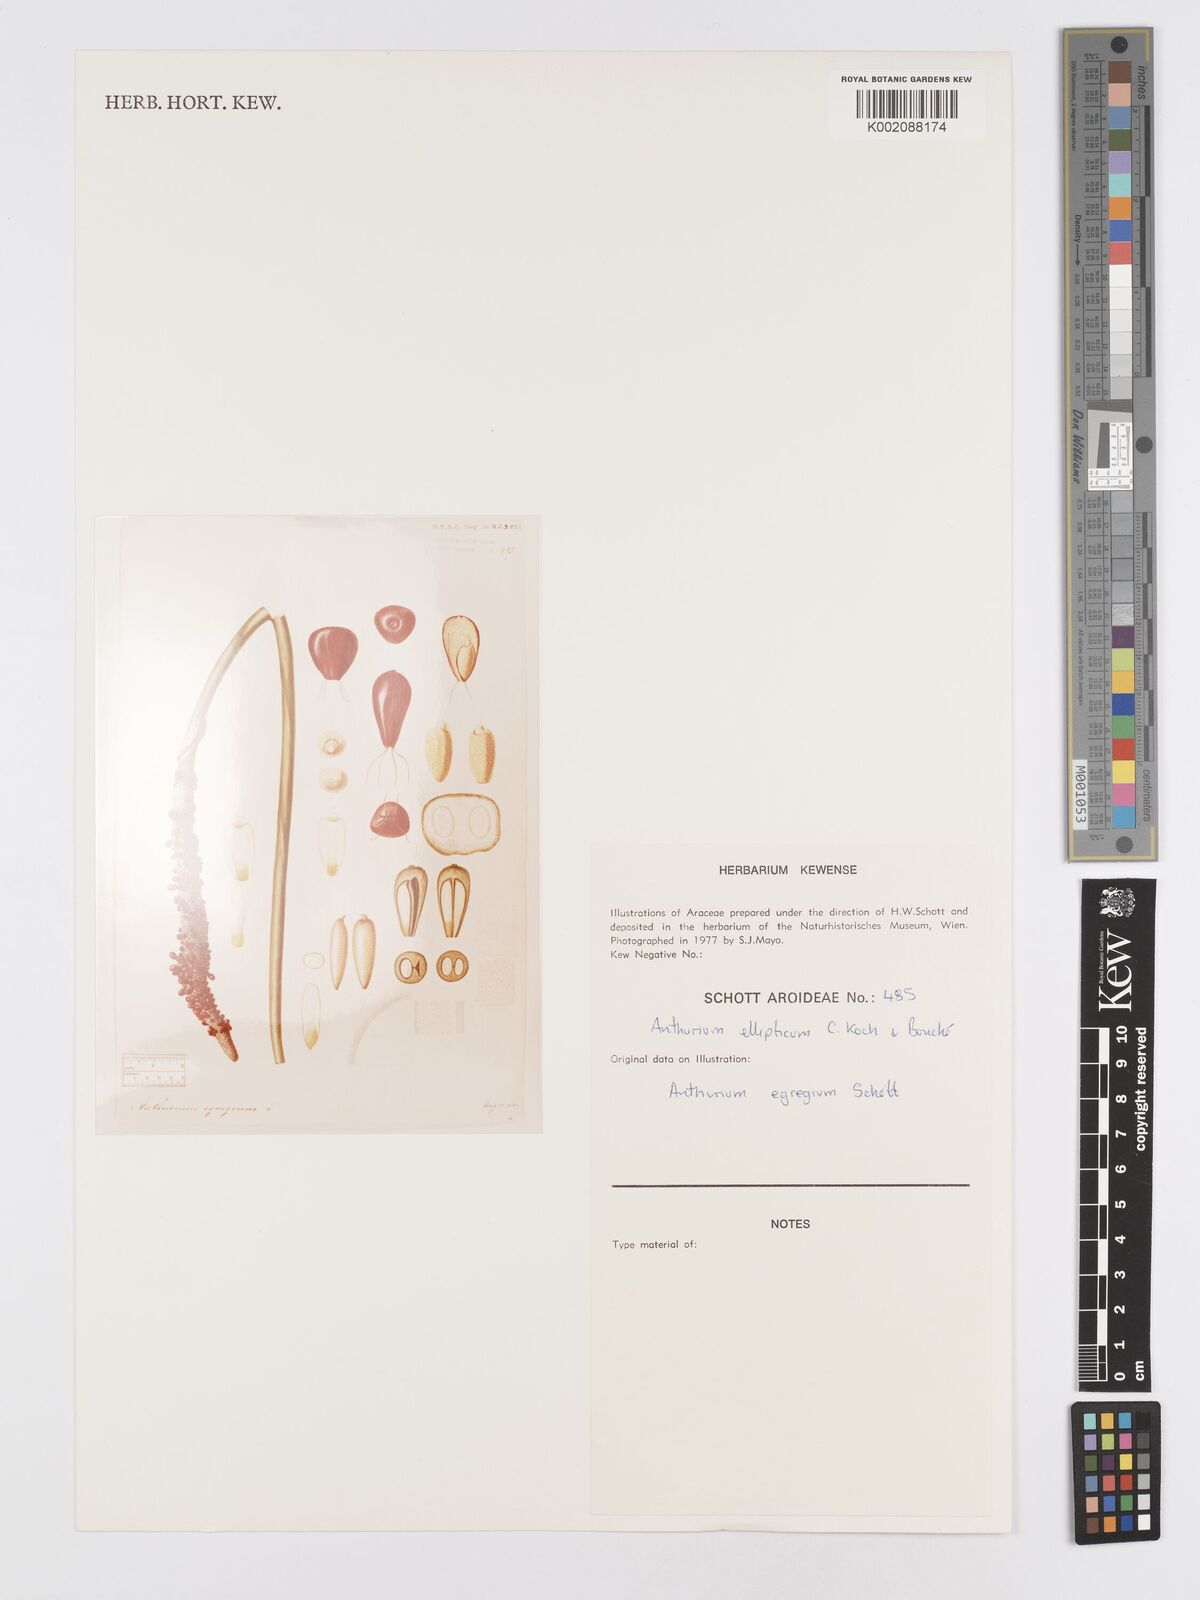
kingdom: Plantae
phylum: Tracheophyta
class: Liliopsida
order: Alismatales
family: Araceae
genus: Anthurium
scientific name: Anthurium crassinervium
